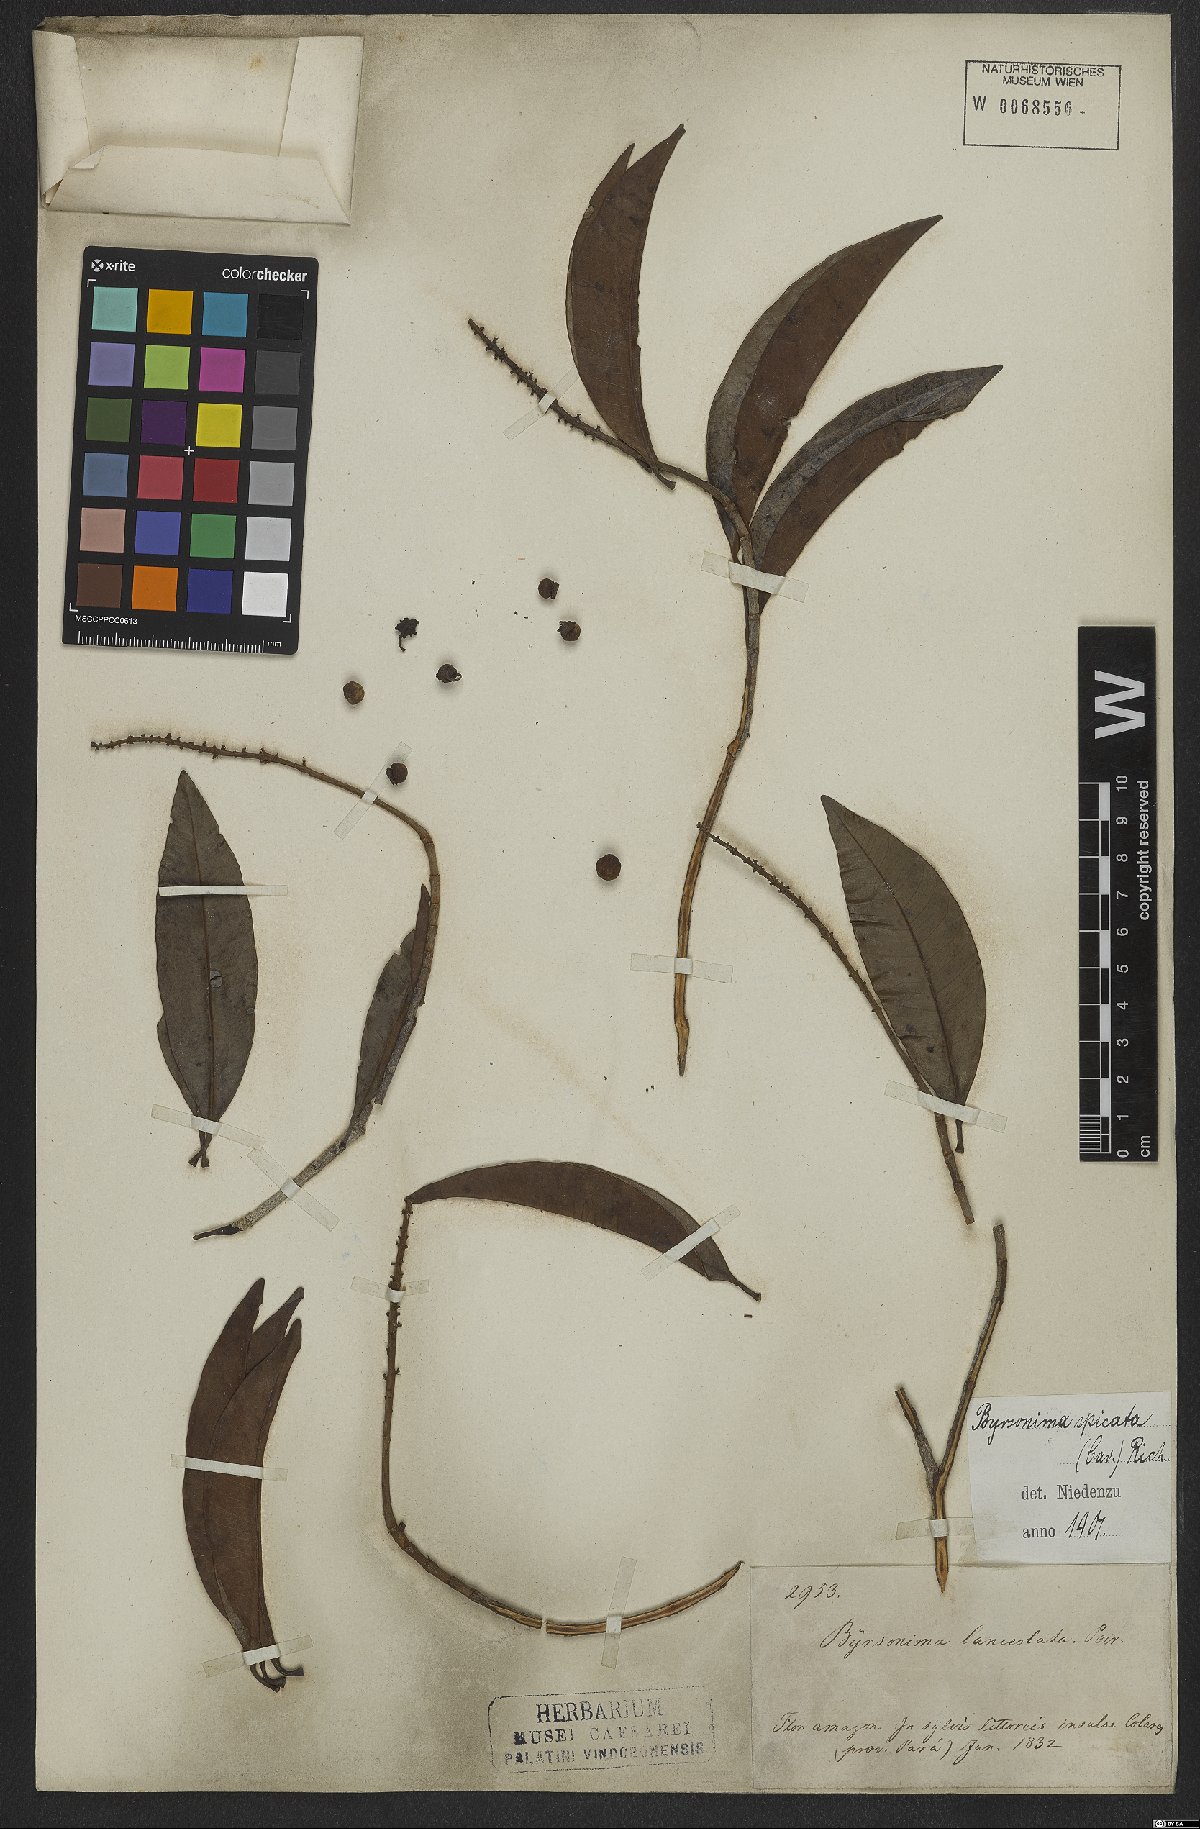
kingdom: Plantae
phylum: Tracheophyta
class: Magnoliopsida
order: Malpighiales
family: Malpighiaceae
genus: Byrsonima
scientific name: Byrsonima crassifolia
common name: Golden spoon
